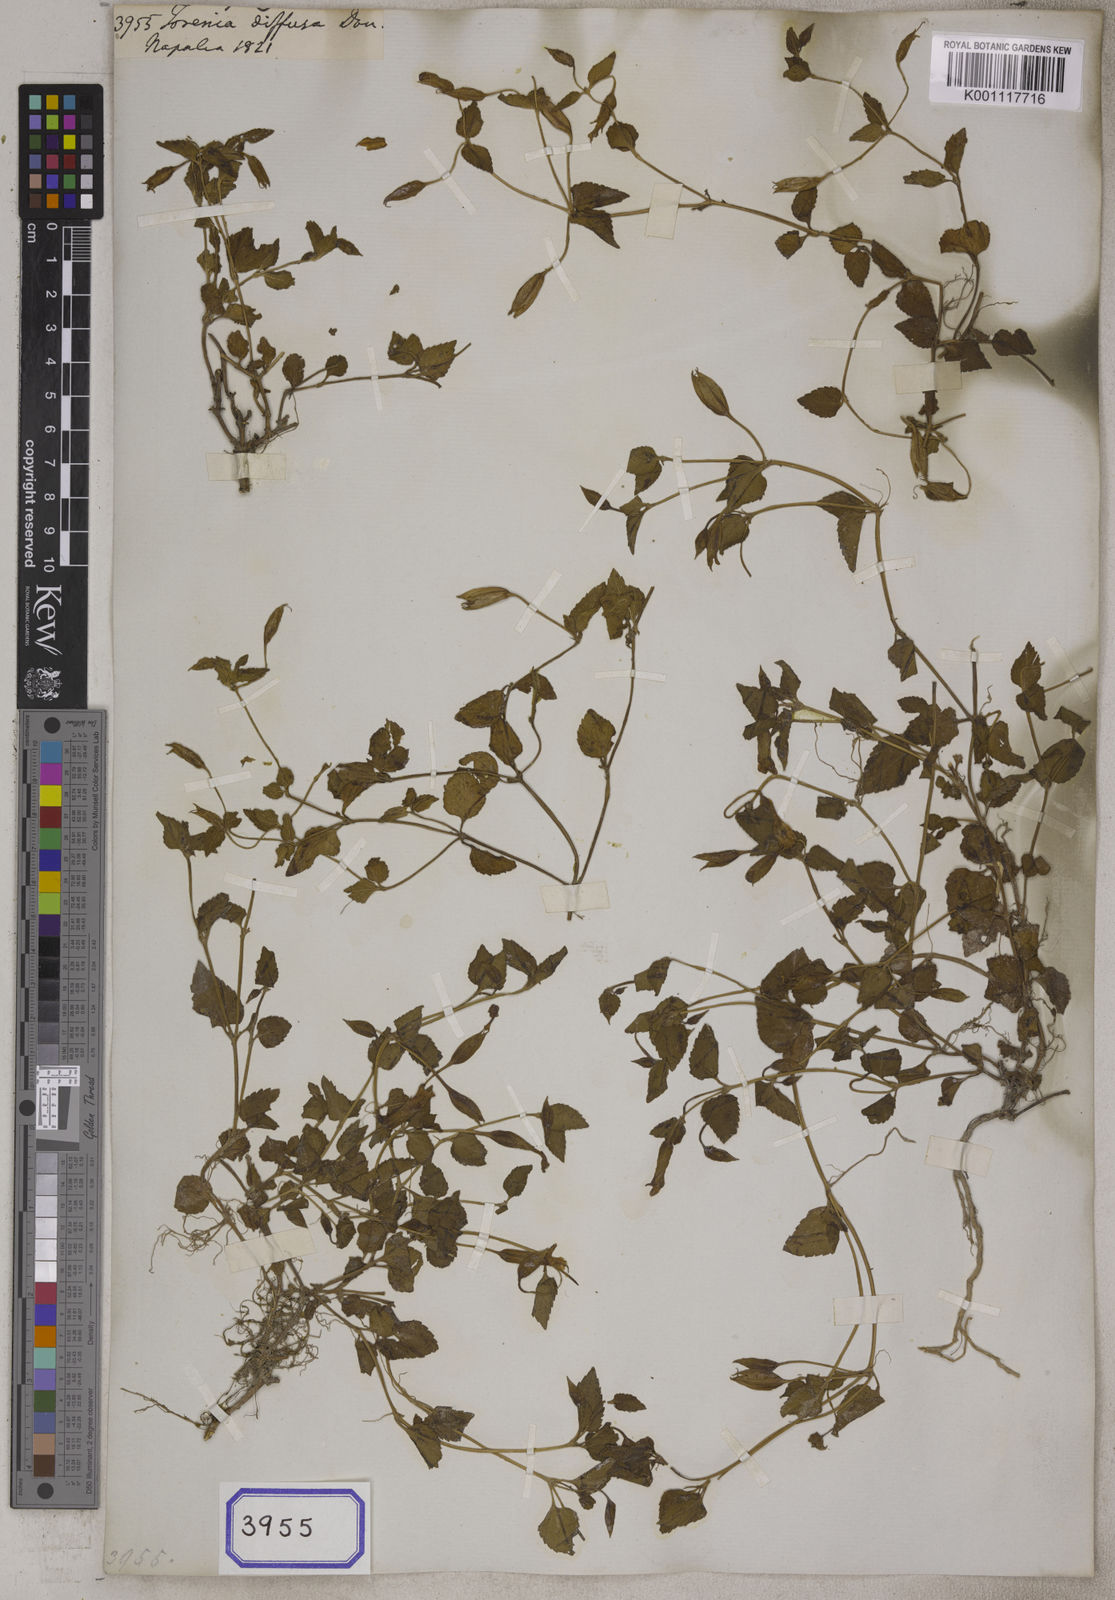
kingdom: Plantae
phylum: Tracheophyta
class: Magnoliopsida
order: Lamiales
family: Linderniaceae
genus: Torenia
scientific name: Torenia diffusa
